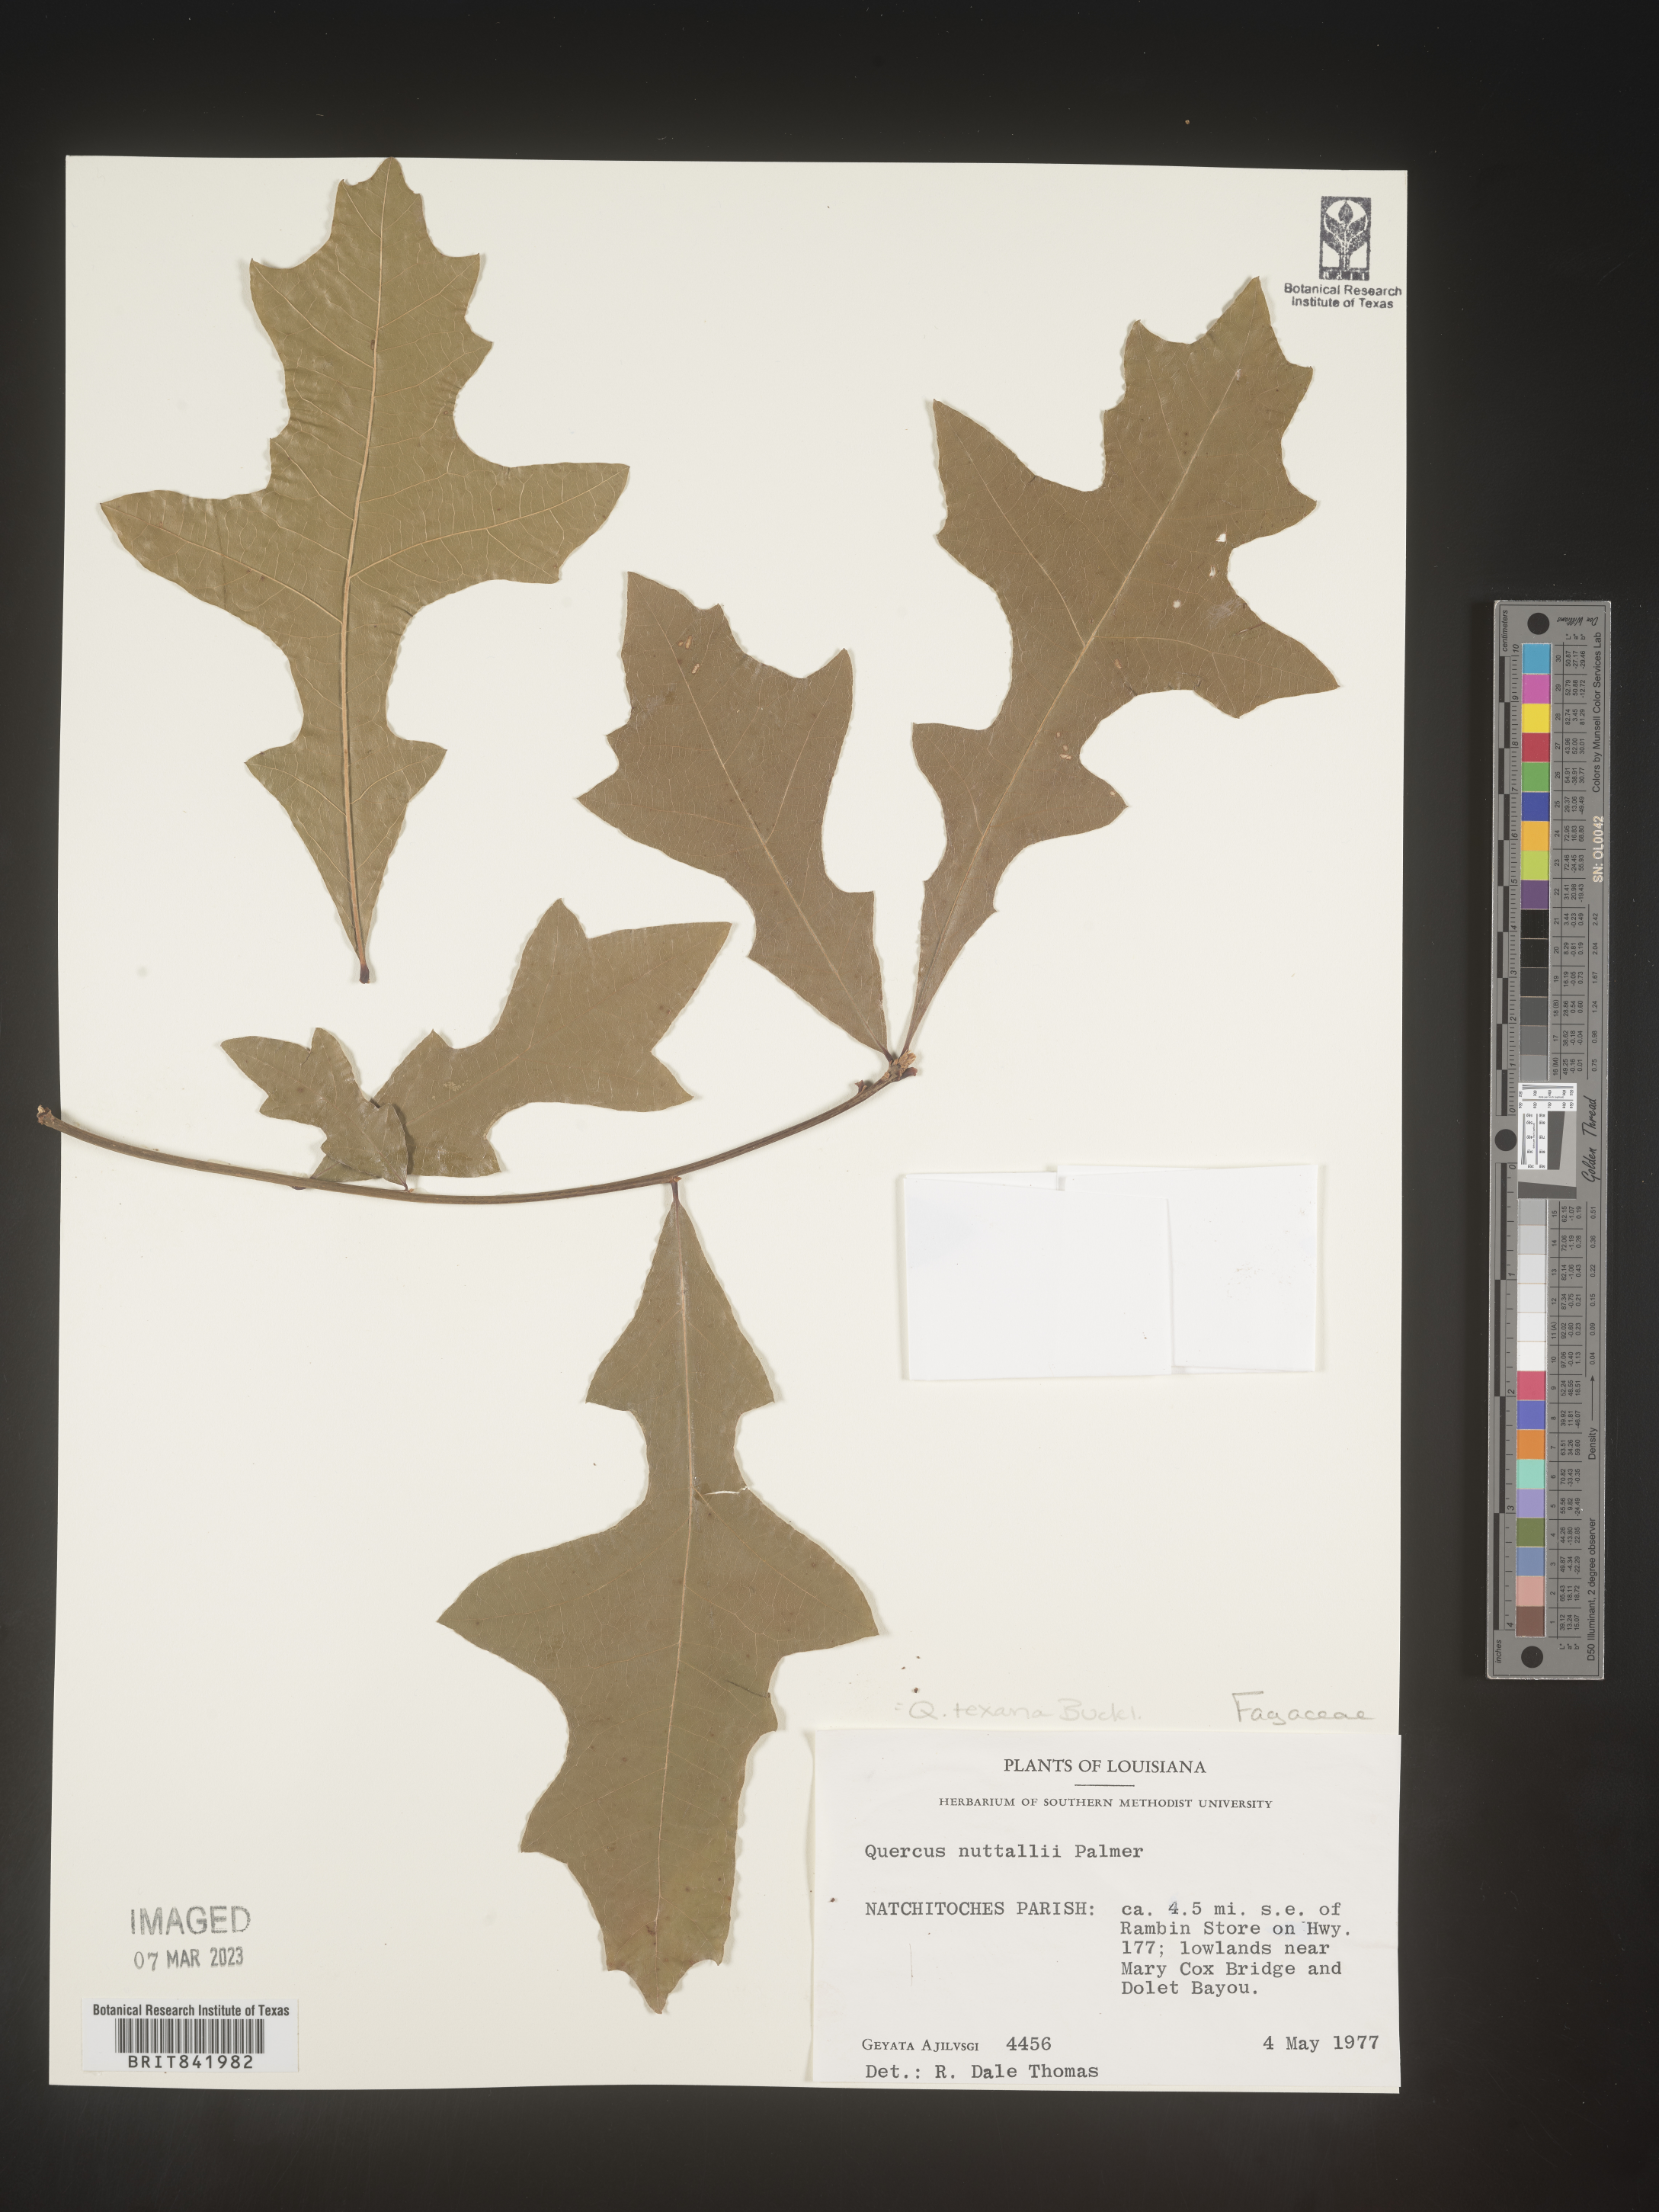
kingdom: Plantae
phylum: Tracheophyta
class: Magnoliopsida
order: Fagales
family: Fagaceae
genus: Quercus
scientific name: Quercus texana
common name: Nuttall oak
